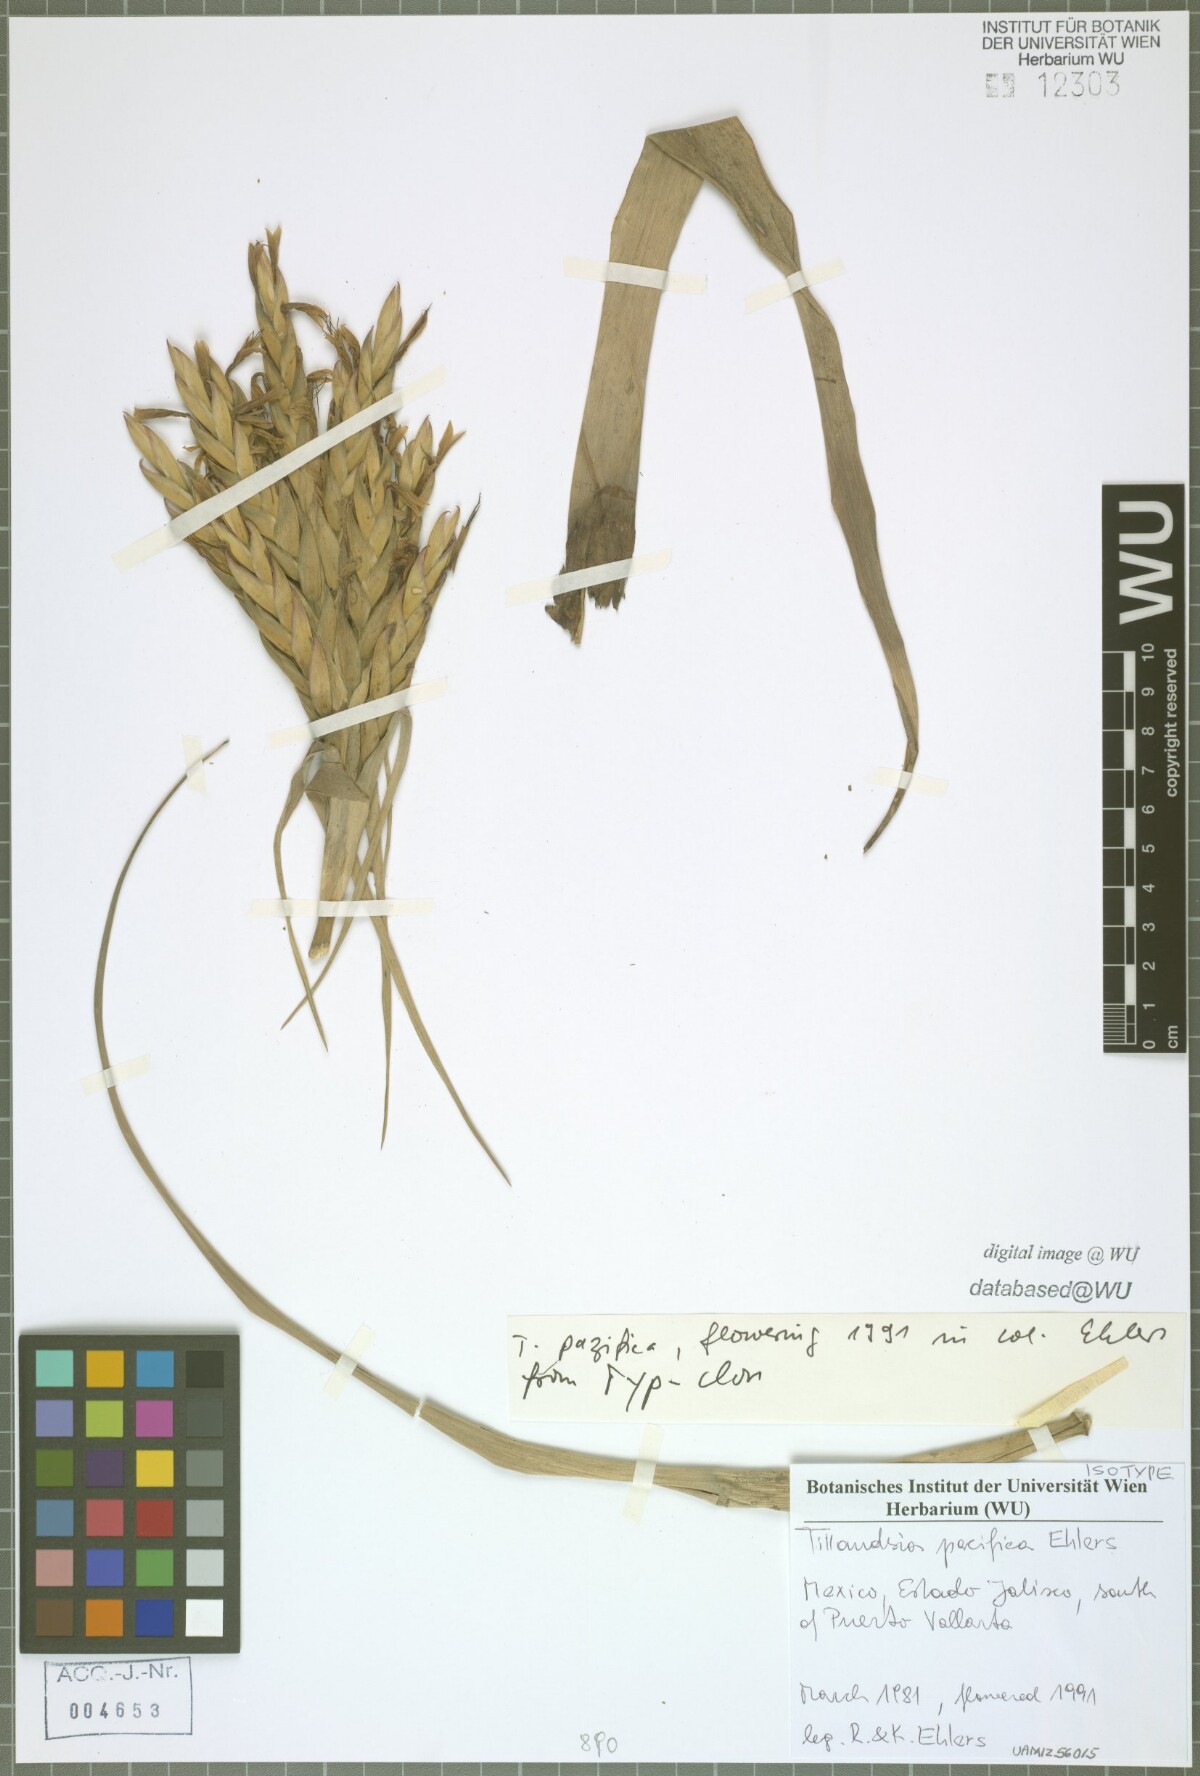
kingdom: Plantae
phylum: Tracheophyta
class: Liliopsida
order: Poales
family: Bromeliaceae
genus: Tillandsia
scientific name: Tillandsia pacifica
